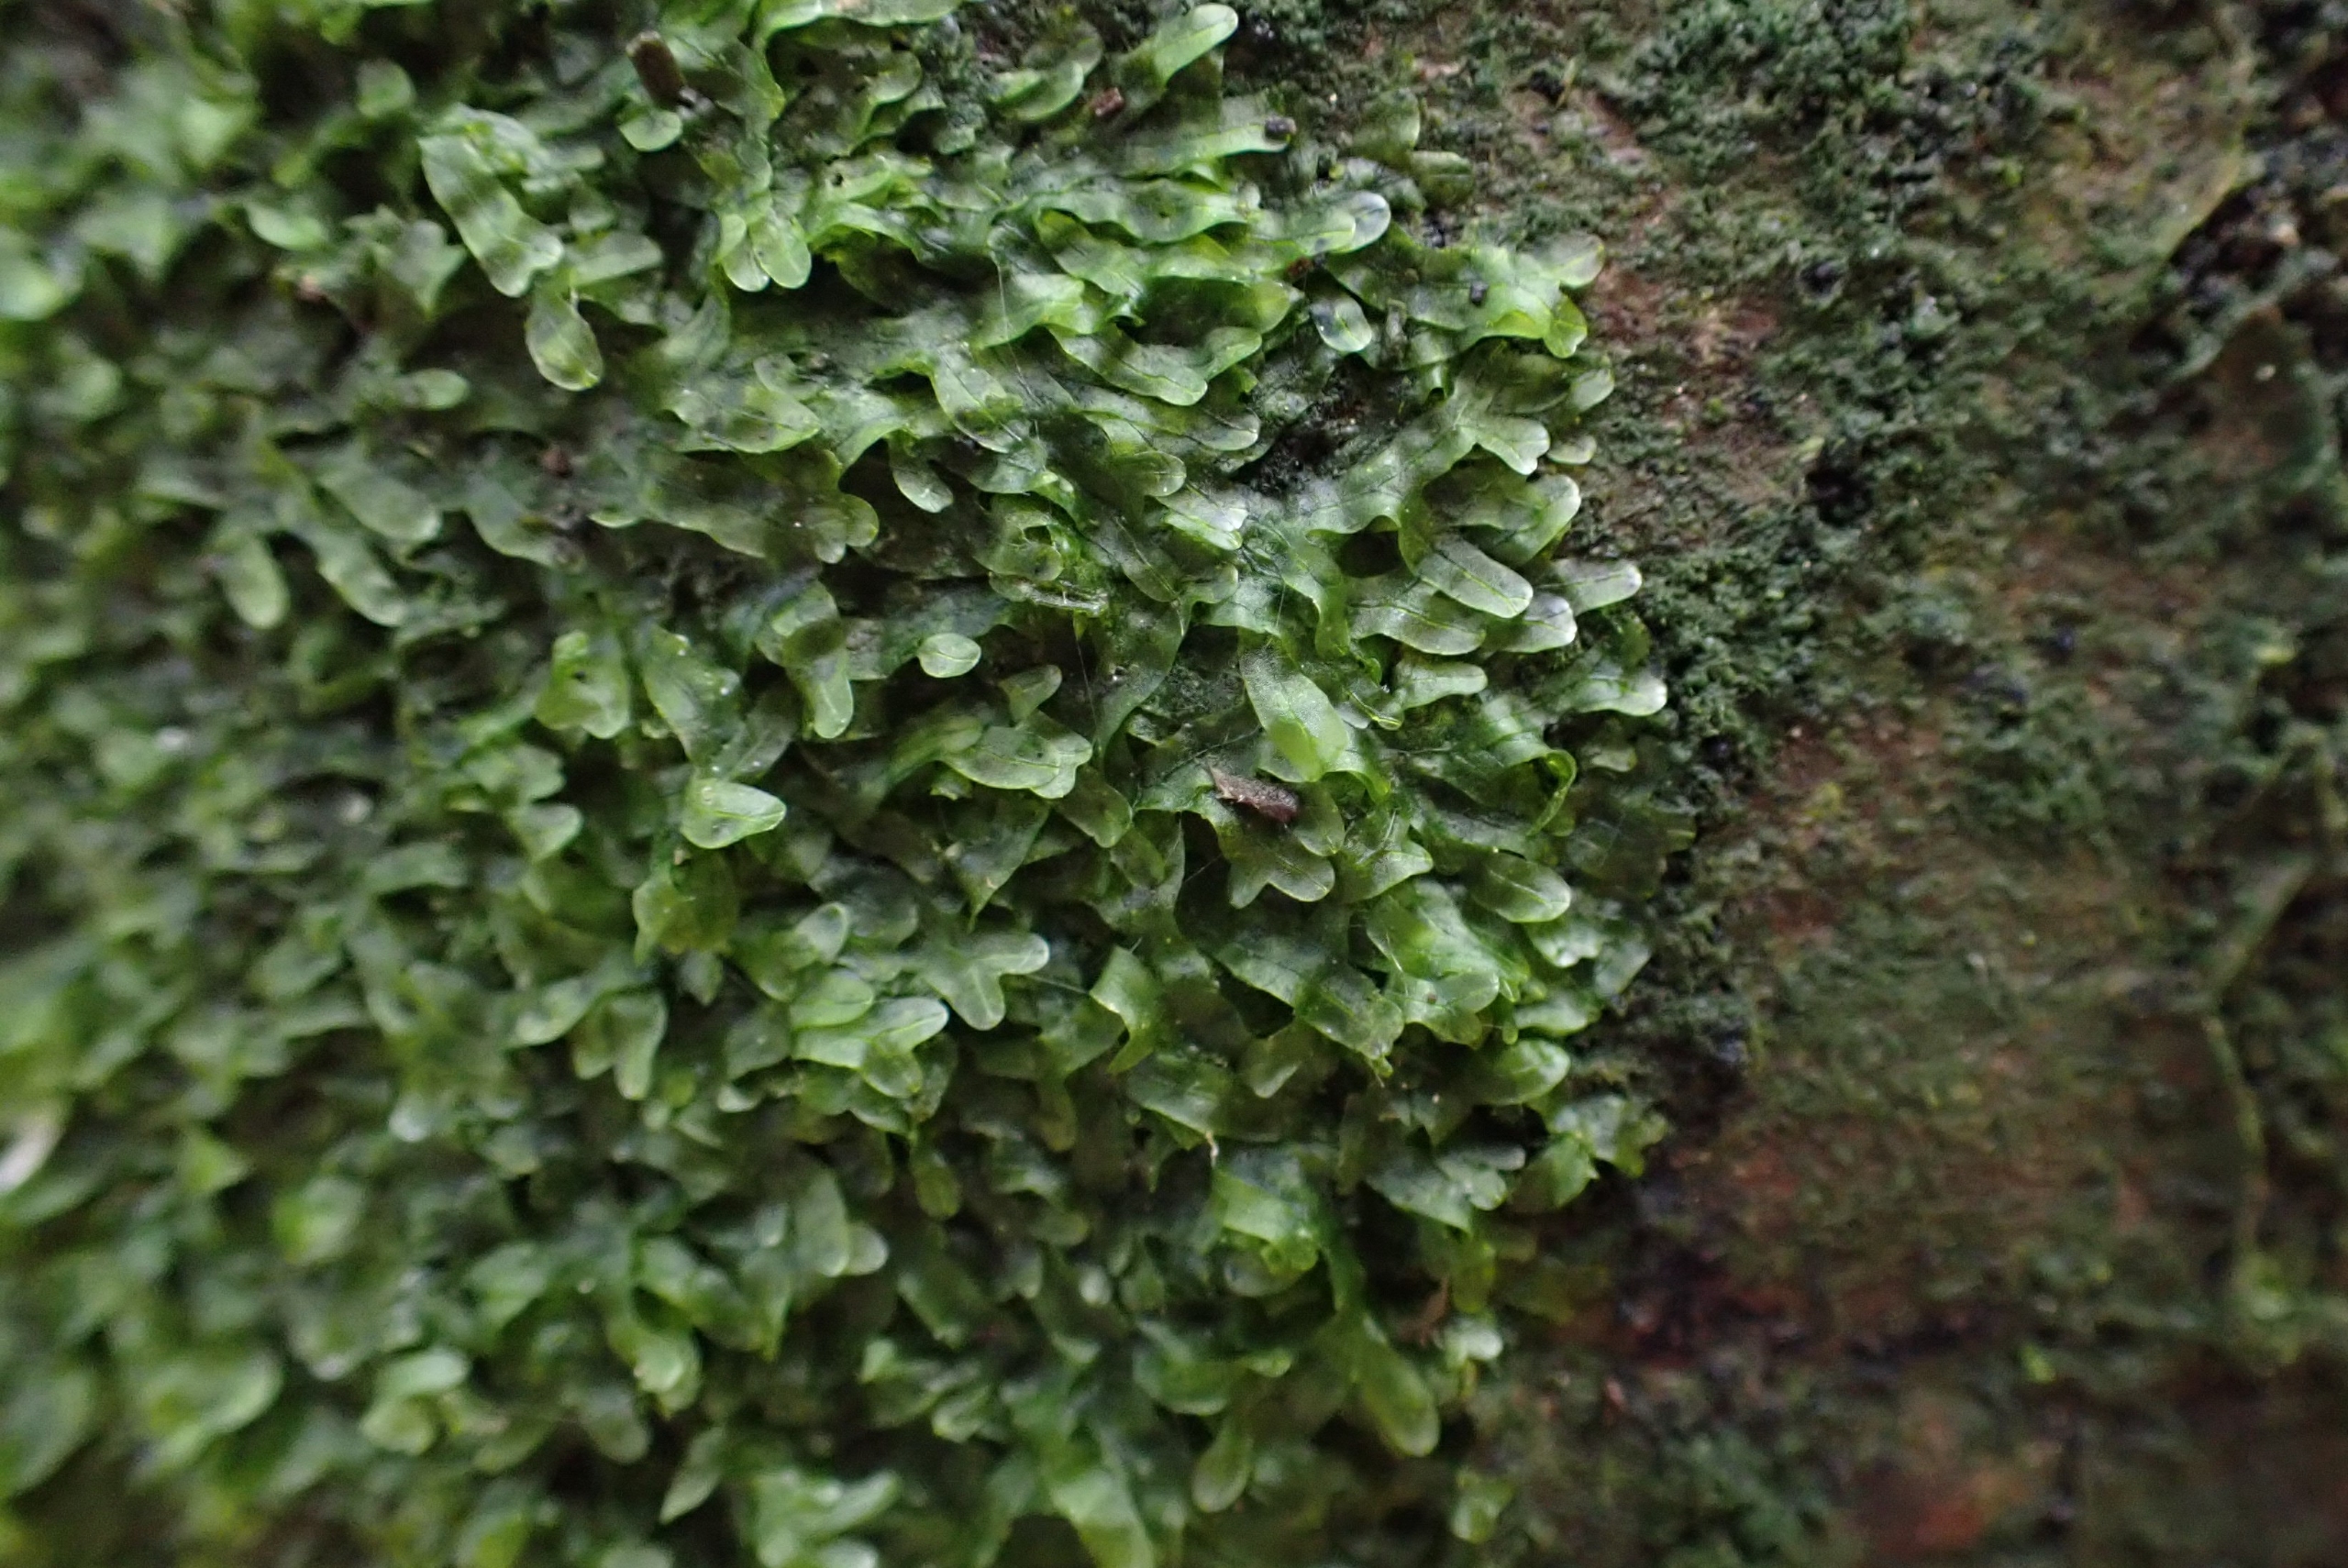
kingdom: Plantae
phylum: Marchantiophyta
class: Jungermanniopsida
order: Metzgeriales
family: Metzgeriaceae
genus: Metzgeria
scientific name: Metzgeria furcata
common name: Almindelig gaffelløv
